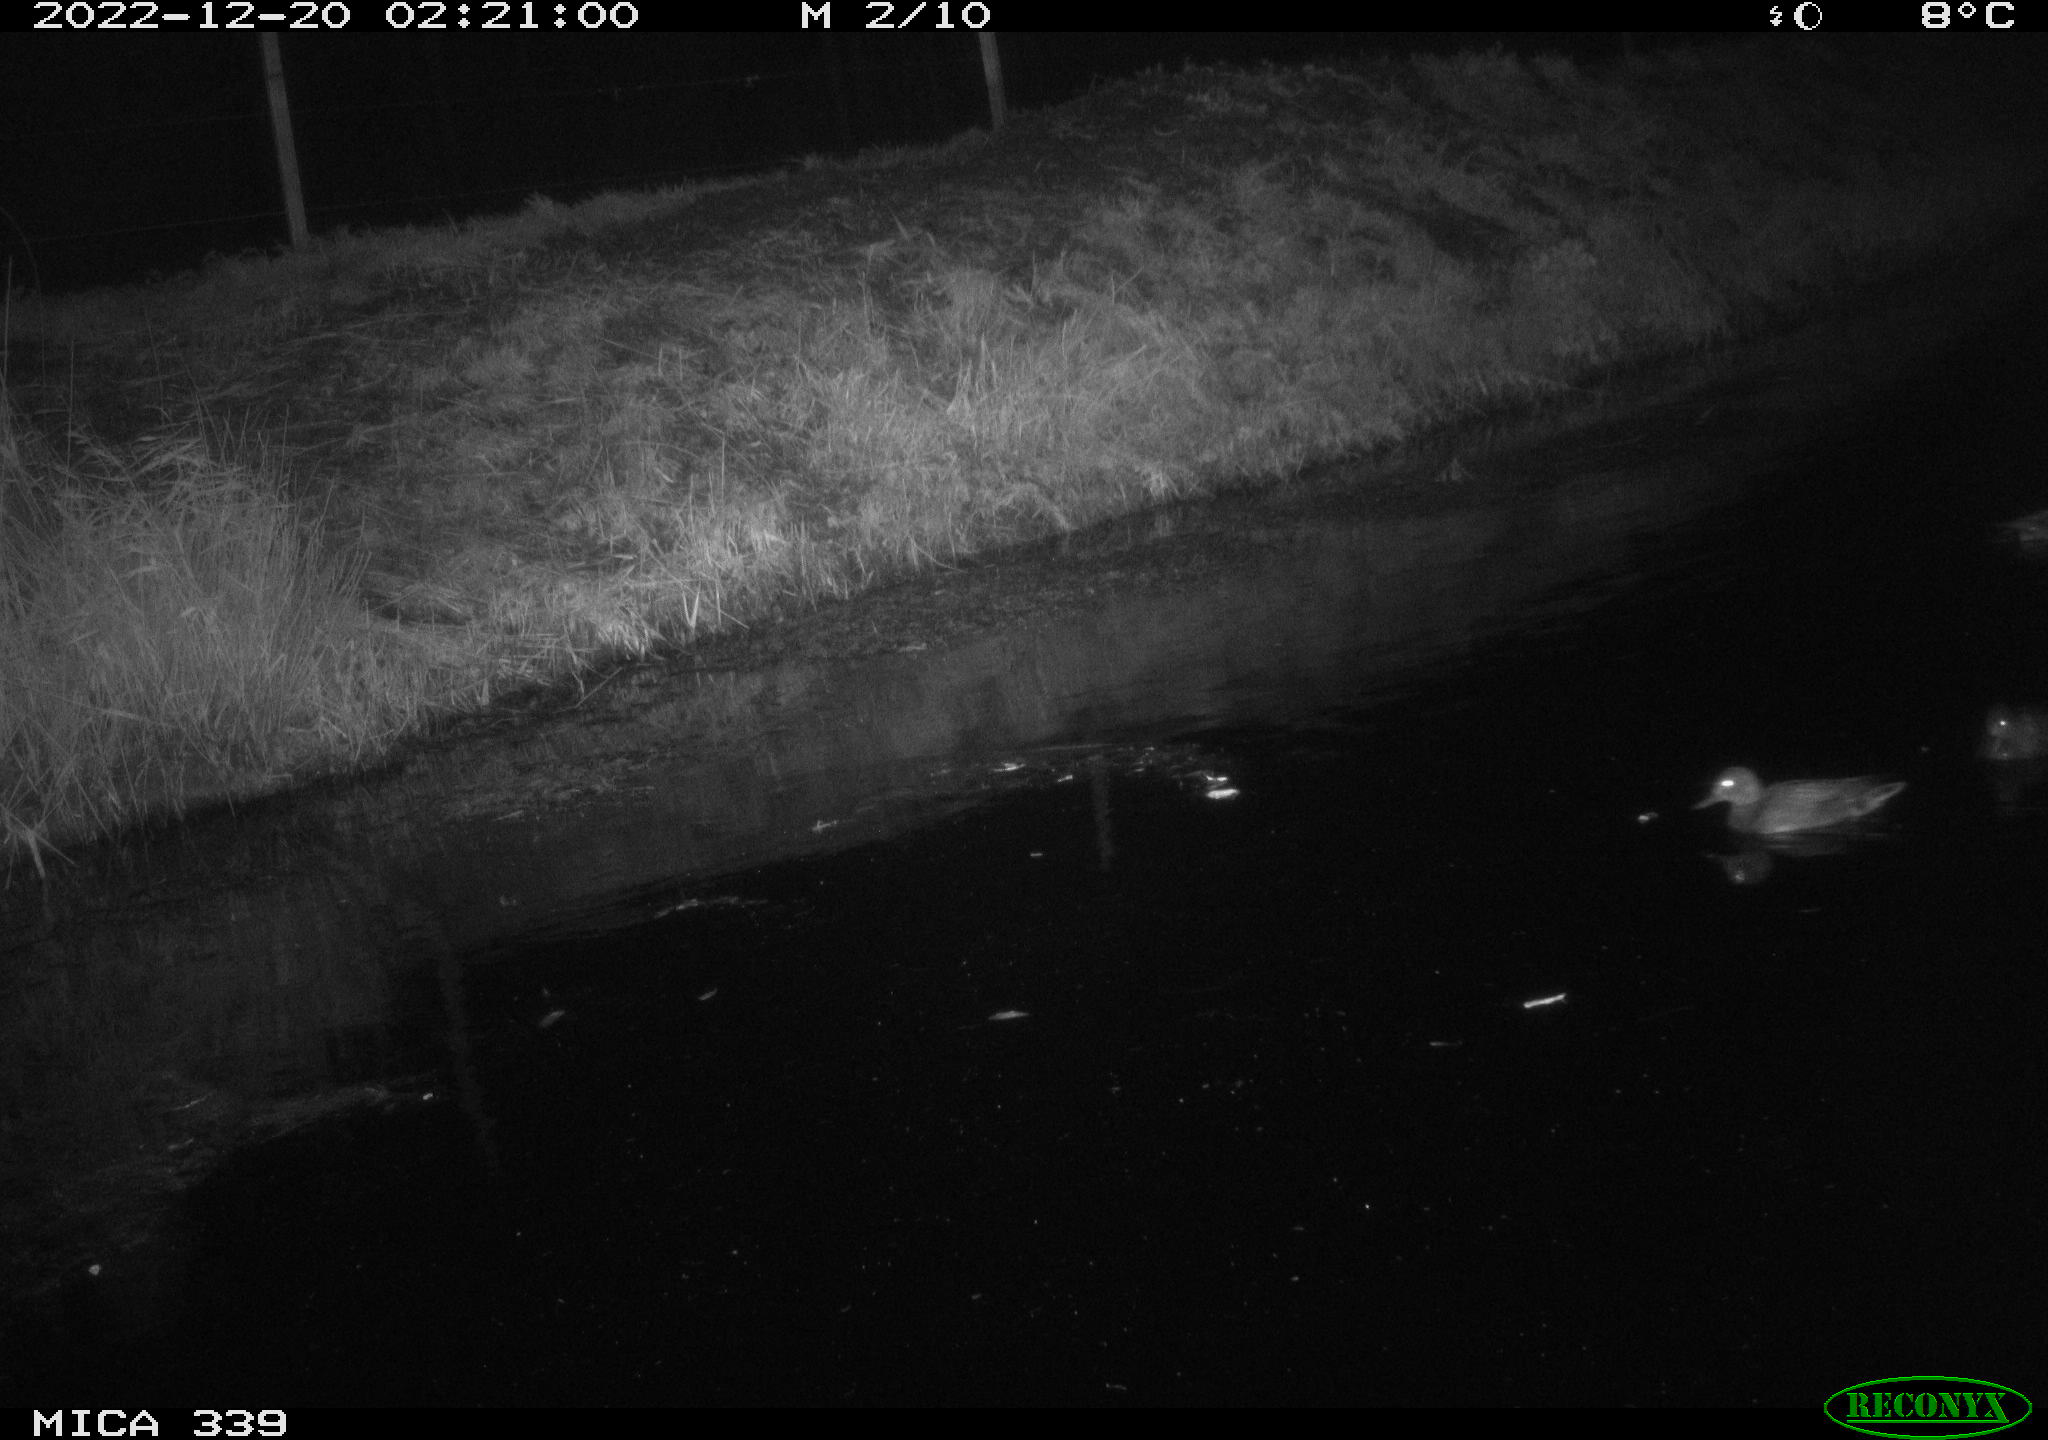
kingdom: Animalia
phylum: Chordata
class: Aves
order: Anseriformes
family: Anatidae
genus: Anas
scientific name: Anas
